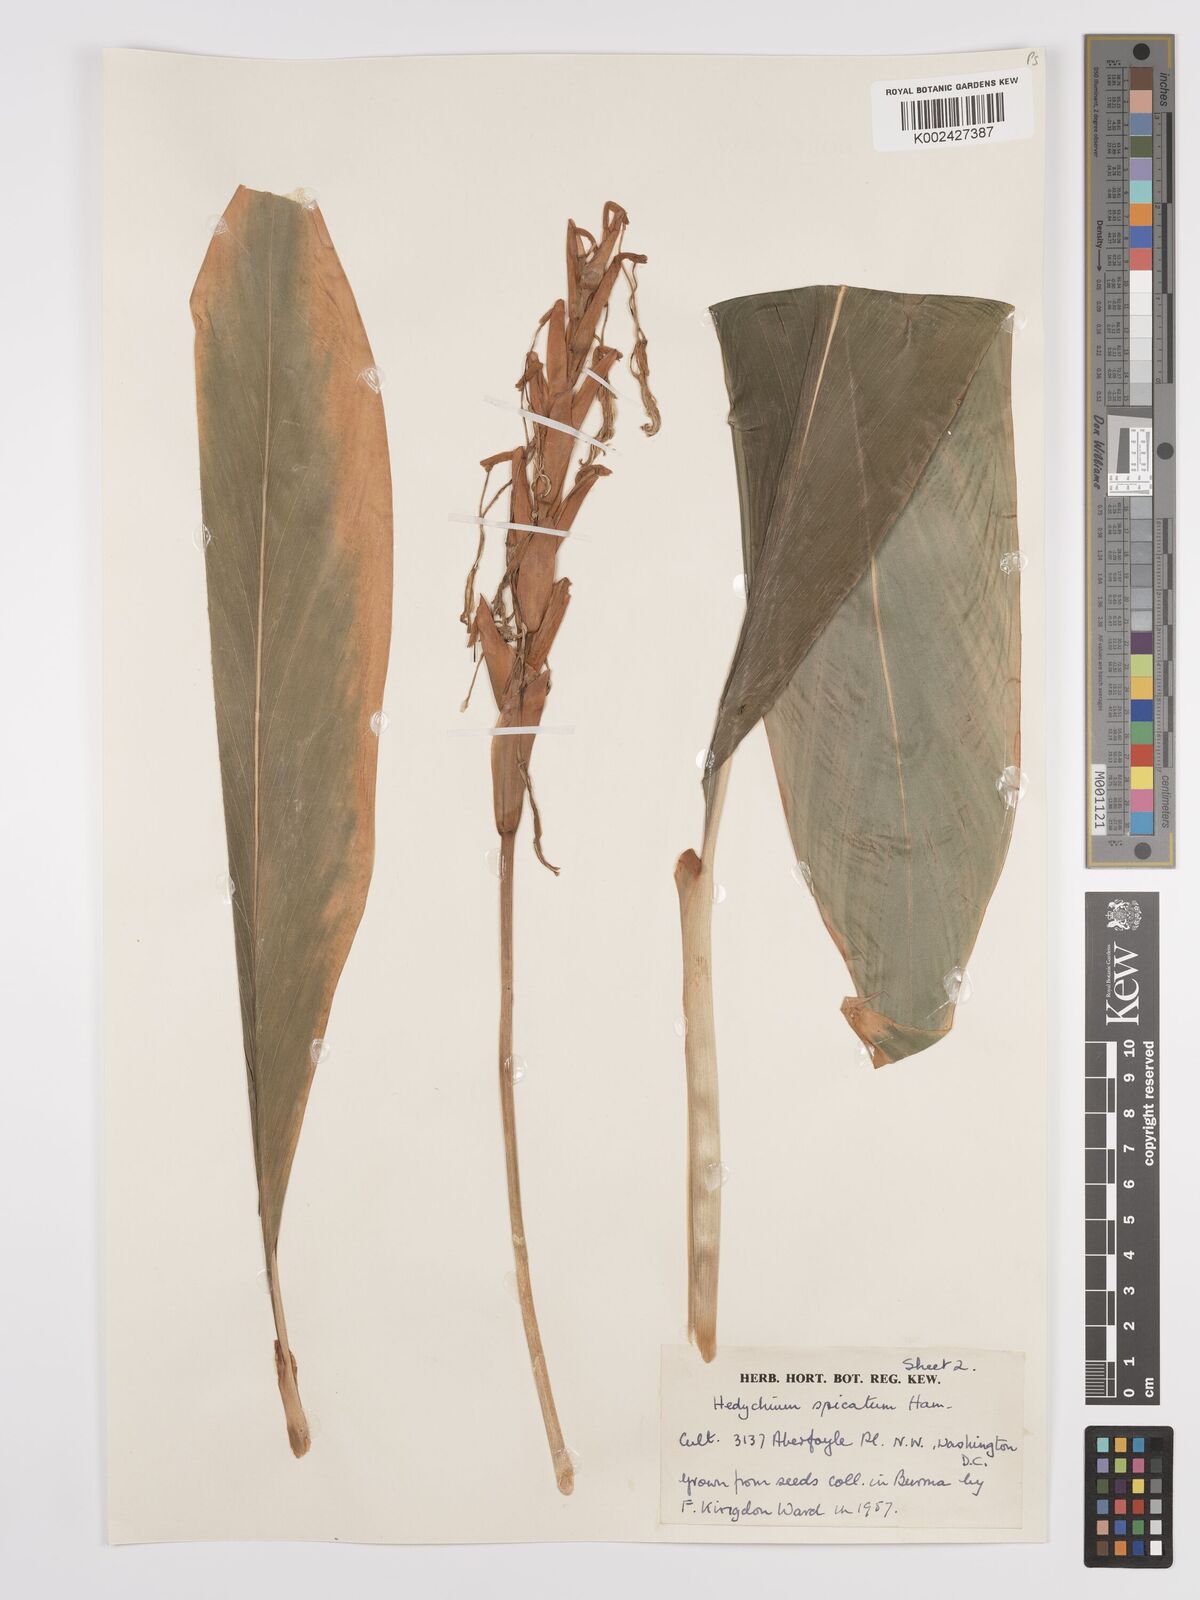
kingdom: Plantae
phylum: Tracheophyta
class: Liliopsida
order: Zingiberales
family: Zingiberaceae
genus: Hedychium
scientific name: Hedychium spicatum
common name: Spiked ginger-lily
